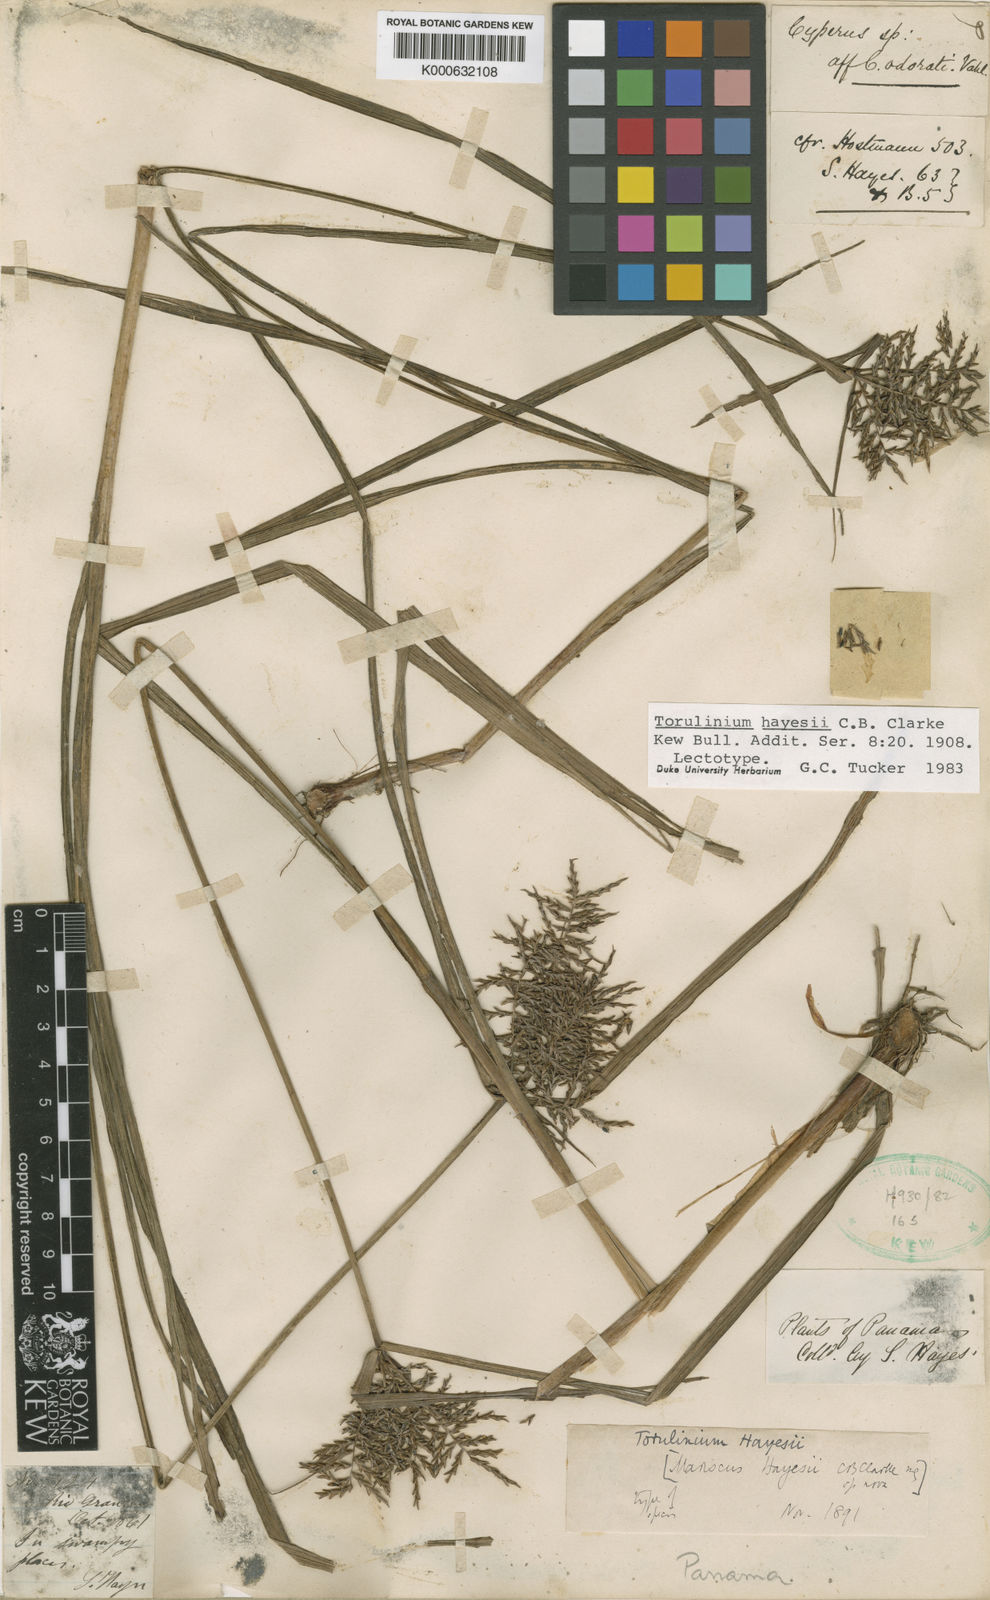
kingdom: Plantae
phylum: Tracheophyta
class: Liliopsida
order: Poales
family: Cyperaceae
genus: Cyperus
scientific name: Cyperus odoratus
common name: Fragrant flatsedge
